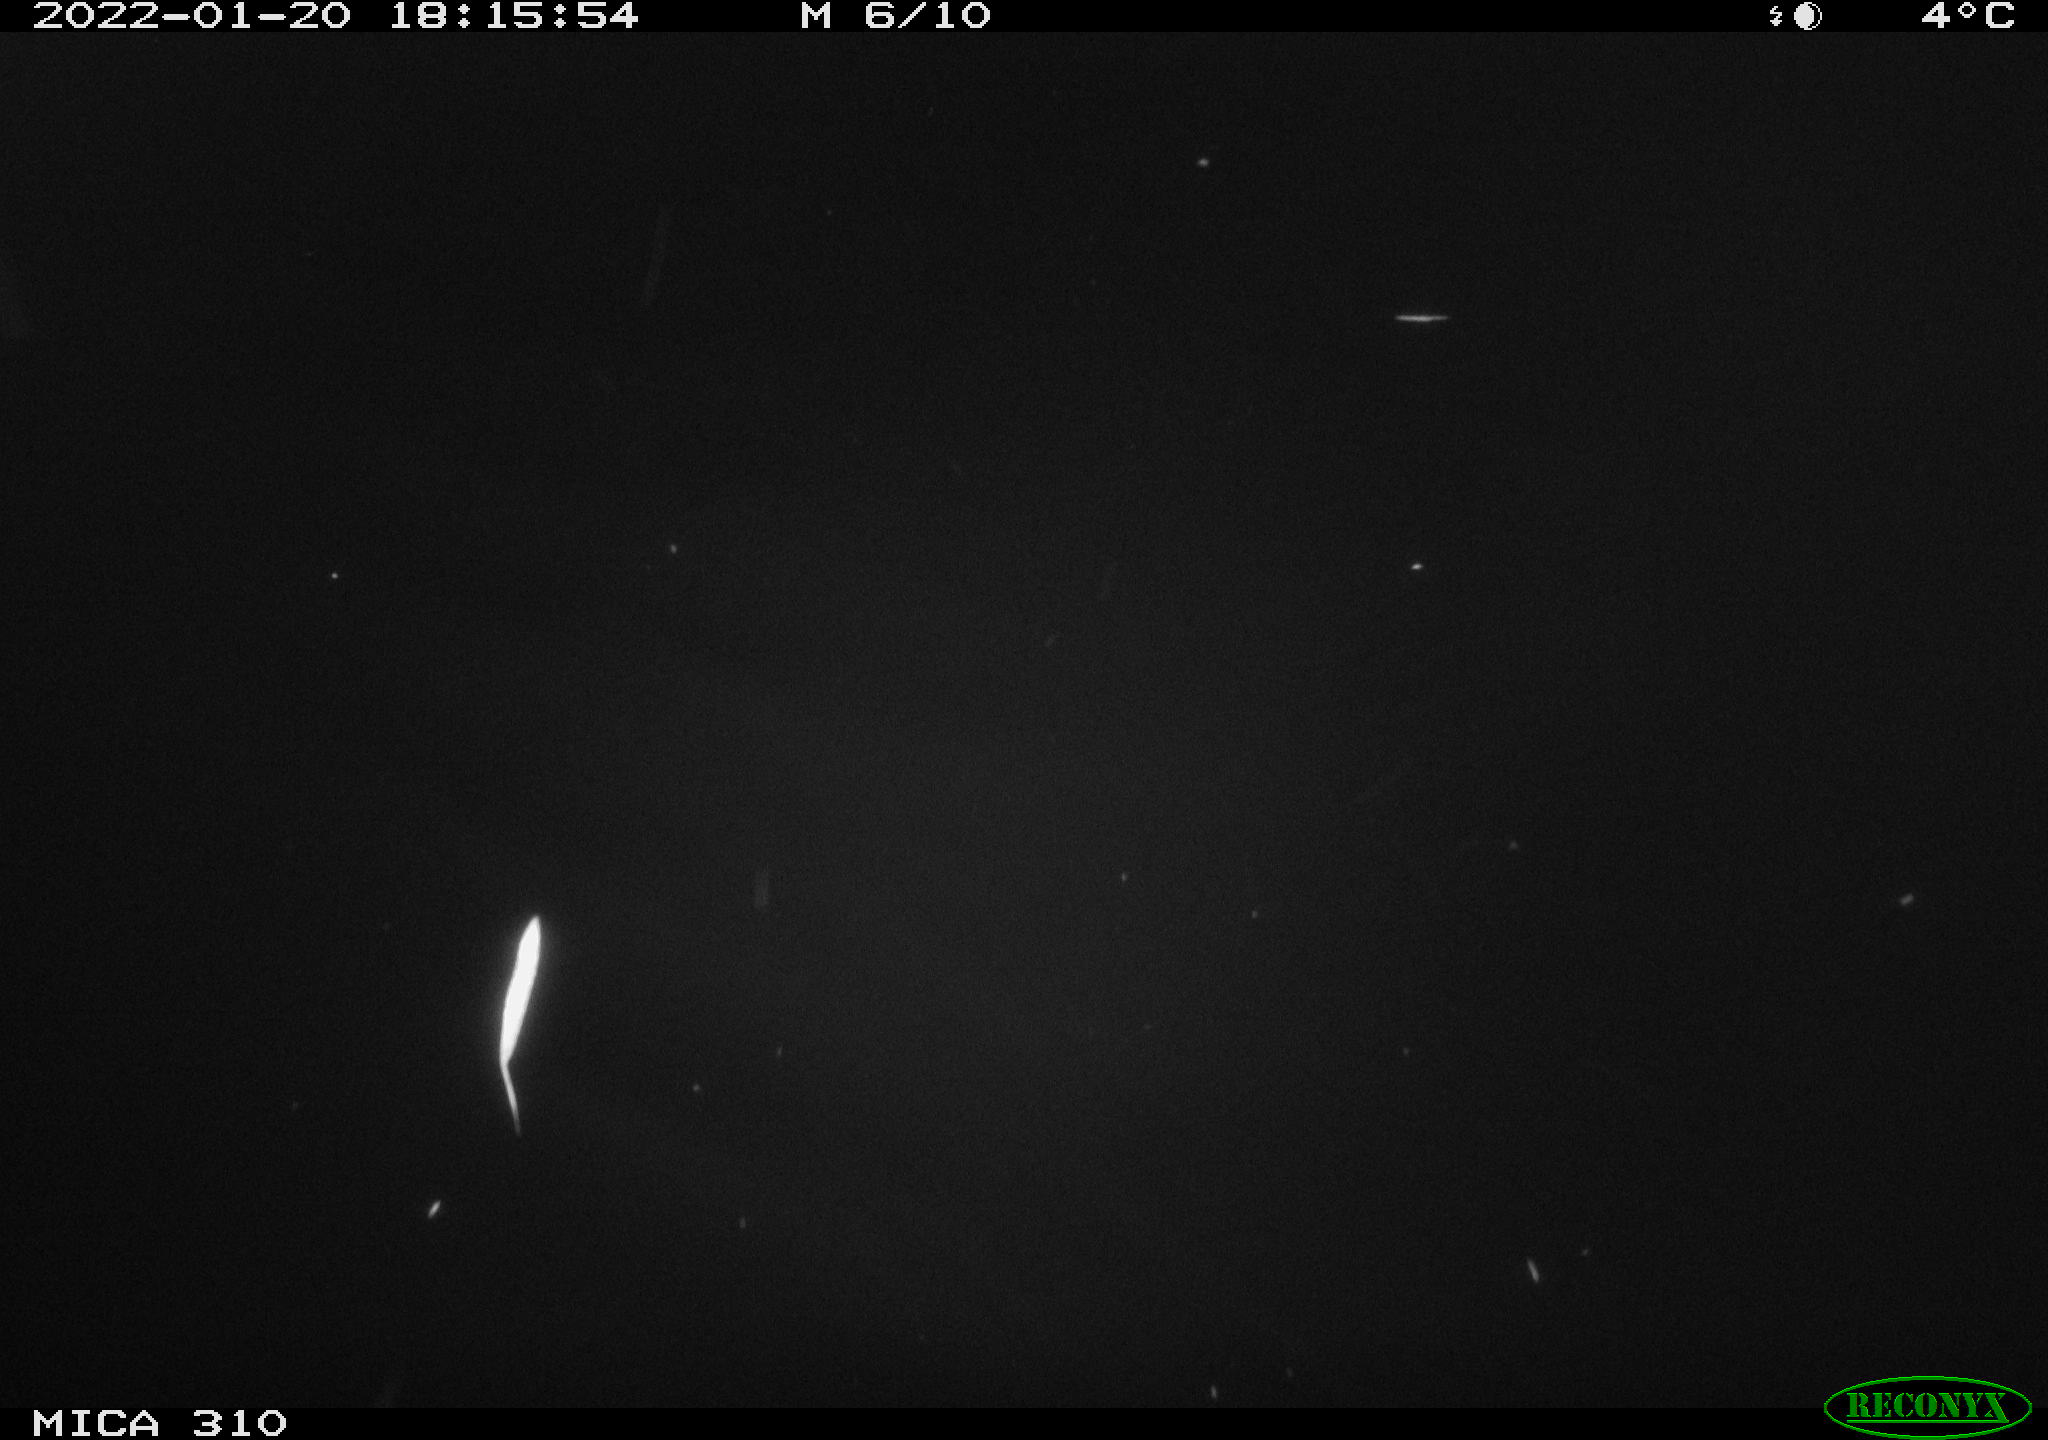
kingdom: Animalia
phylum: Chordata
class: Aves
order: Gruiformes
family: Rallidae
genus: Fulica
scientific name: Fulica atra
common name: Eurasian coot
